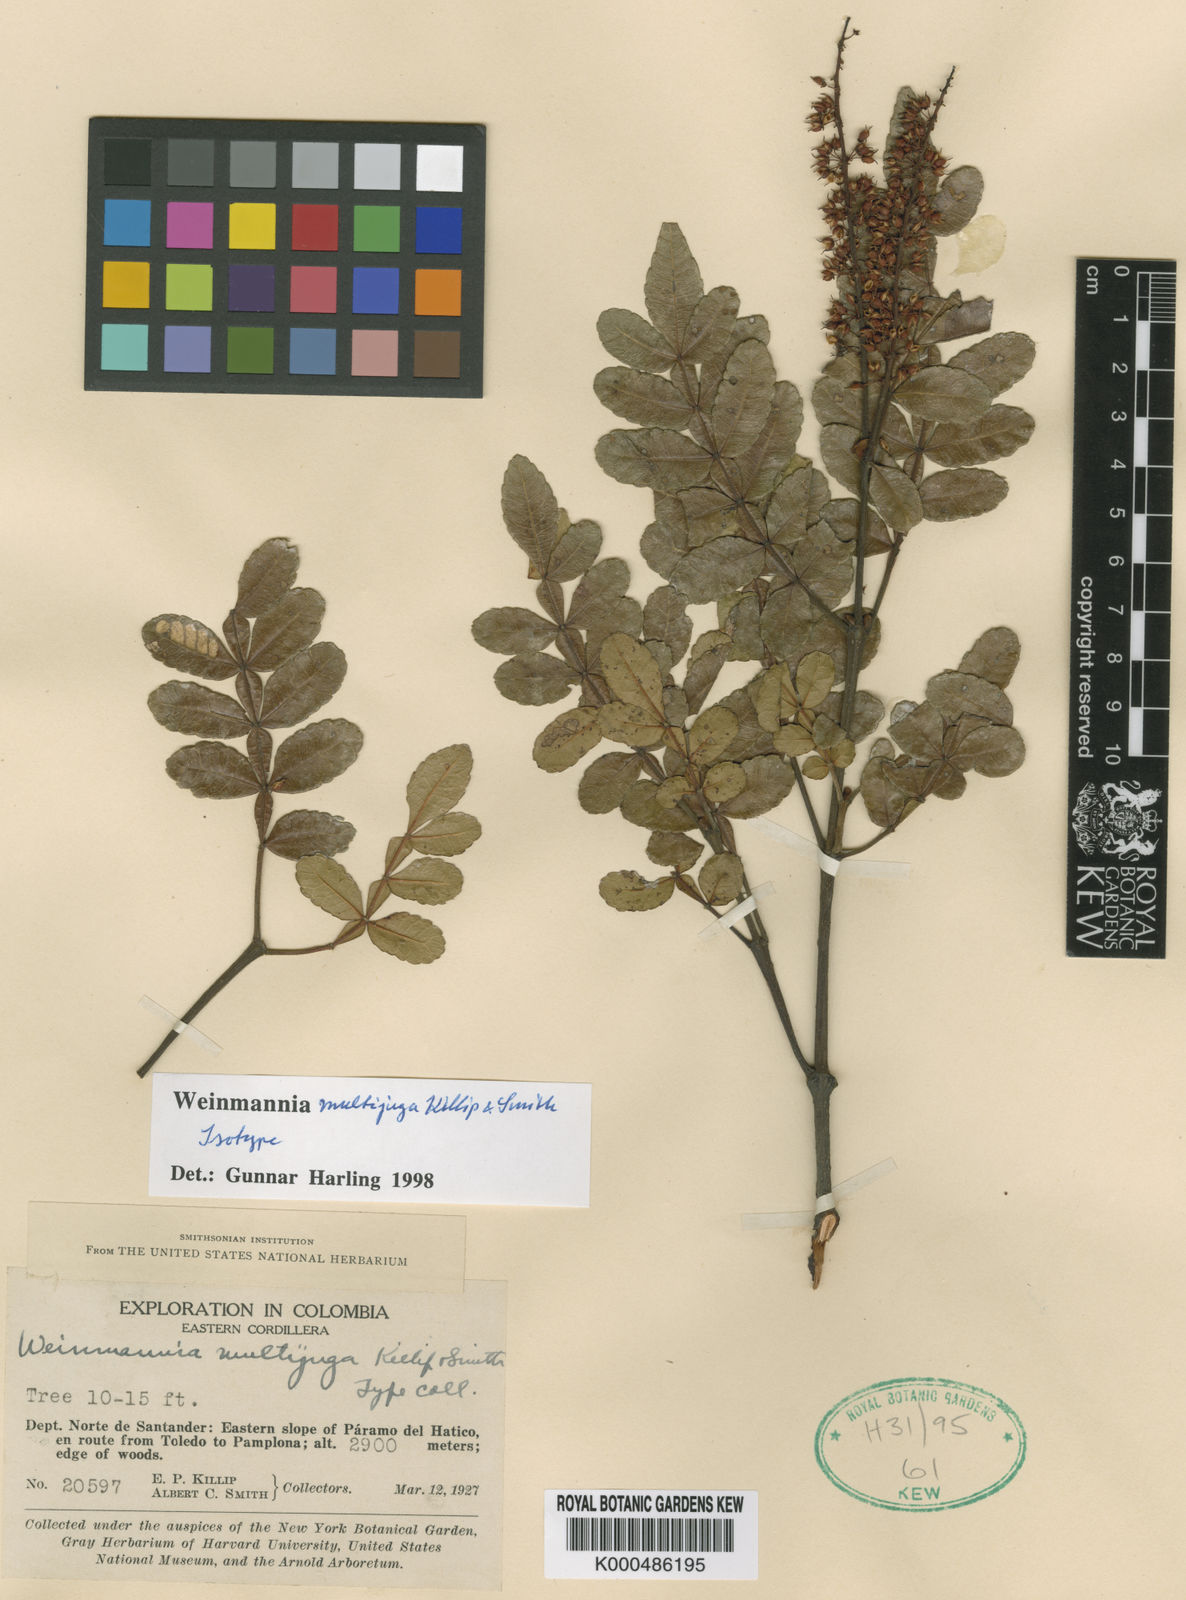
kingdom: Plantae
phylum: Tracheophyta
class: Magnoliopsida
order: Oxalidales
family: Cunoniaceae
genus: Weinmannia
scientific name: Weinmannia multijuga
